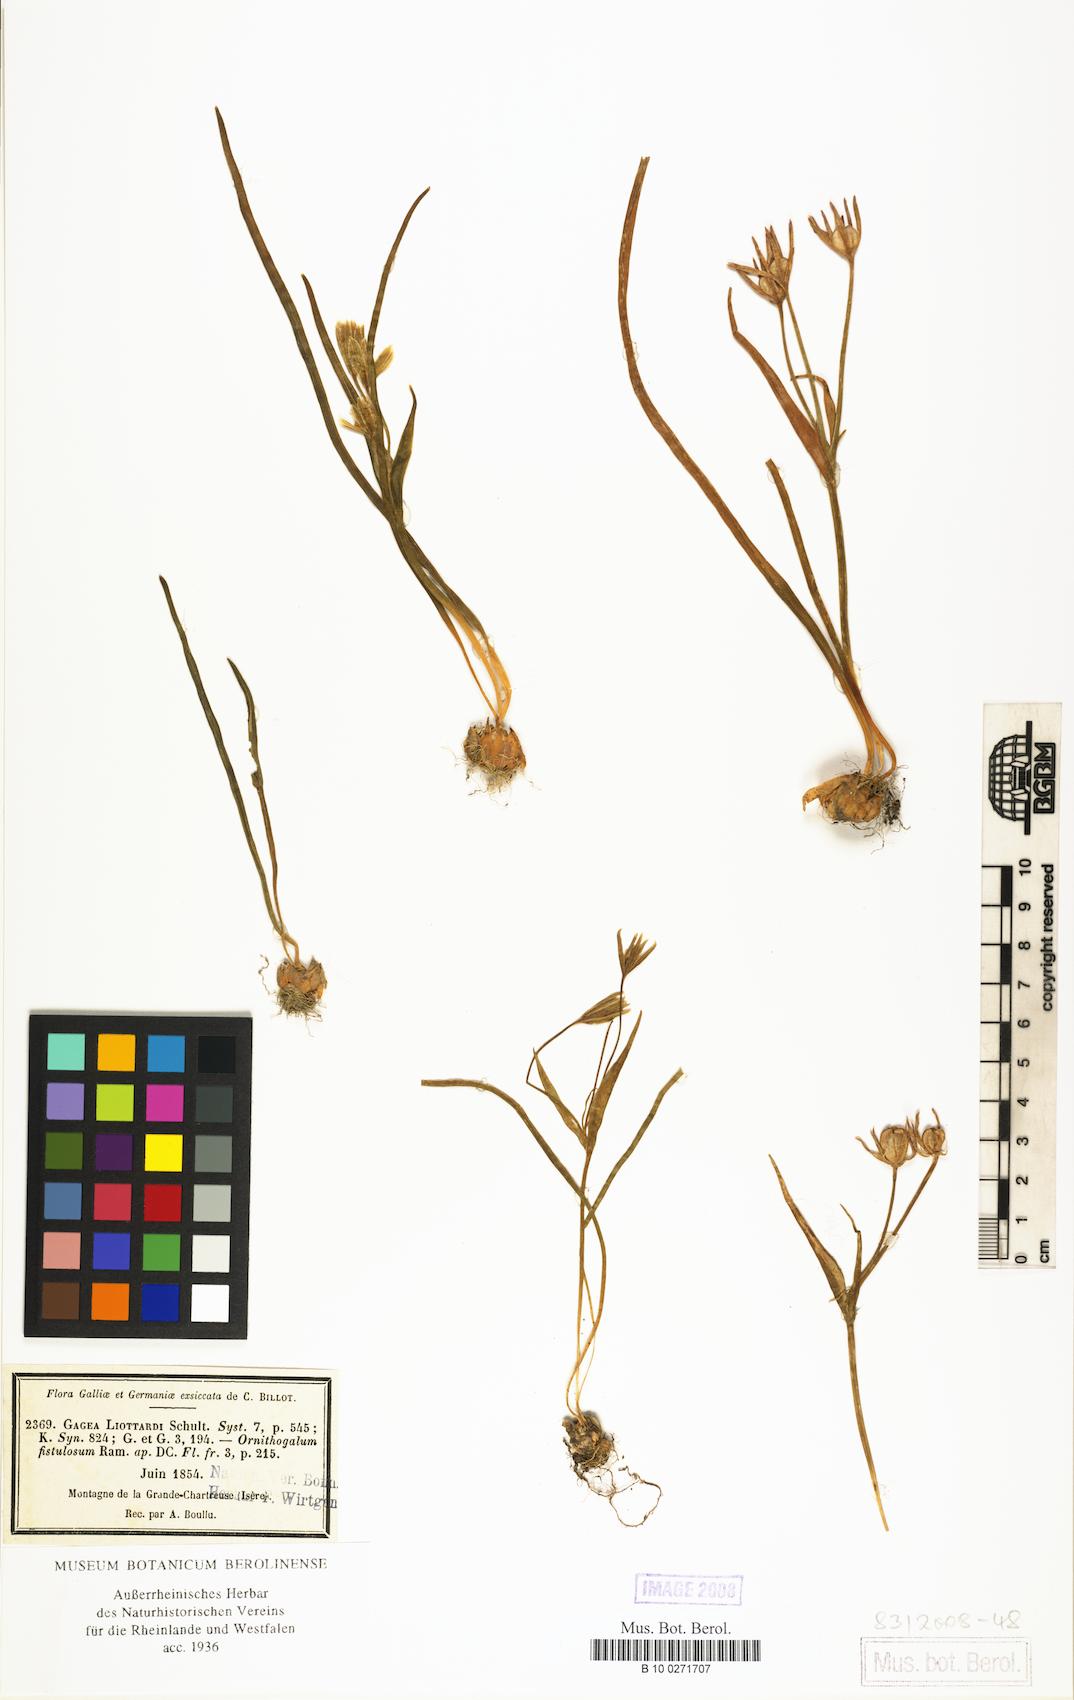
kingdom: Plantae
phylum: Tracheophyta
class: Liliopsida
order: Liliales
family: Liliaceae
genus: Gagea
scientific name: Gagea bohemica
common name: Early star-of-bethlehem
